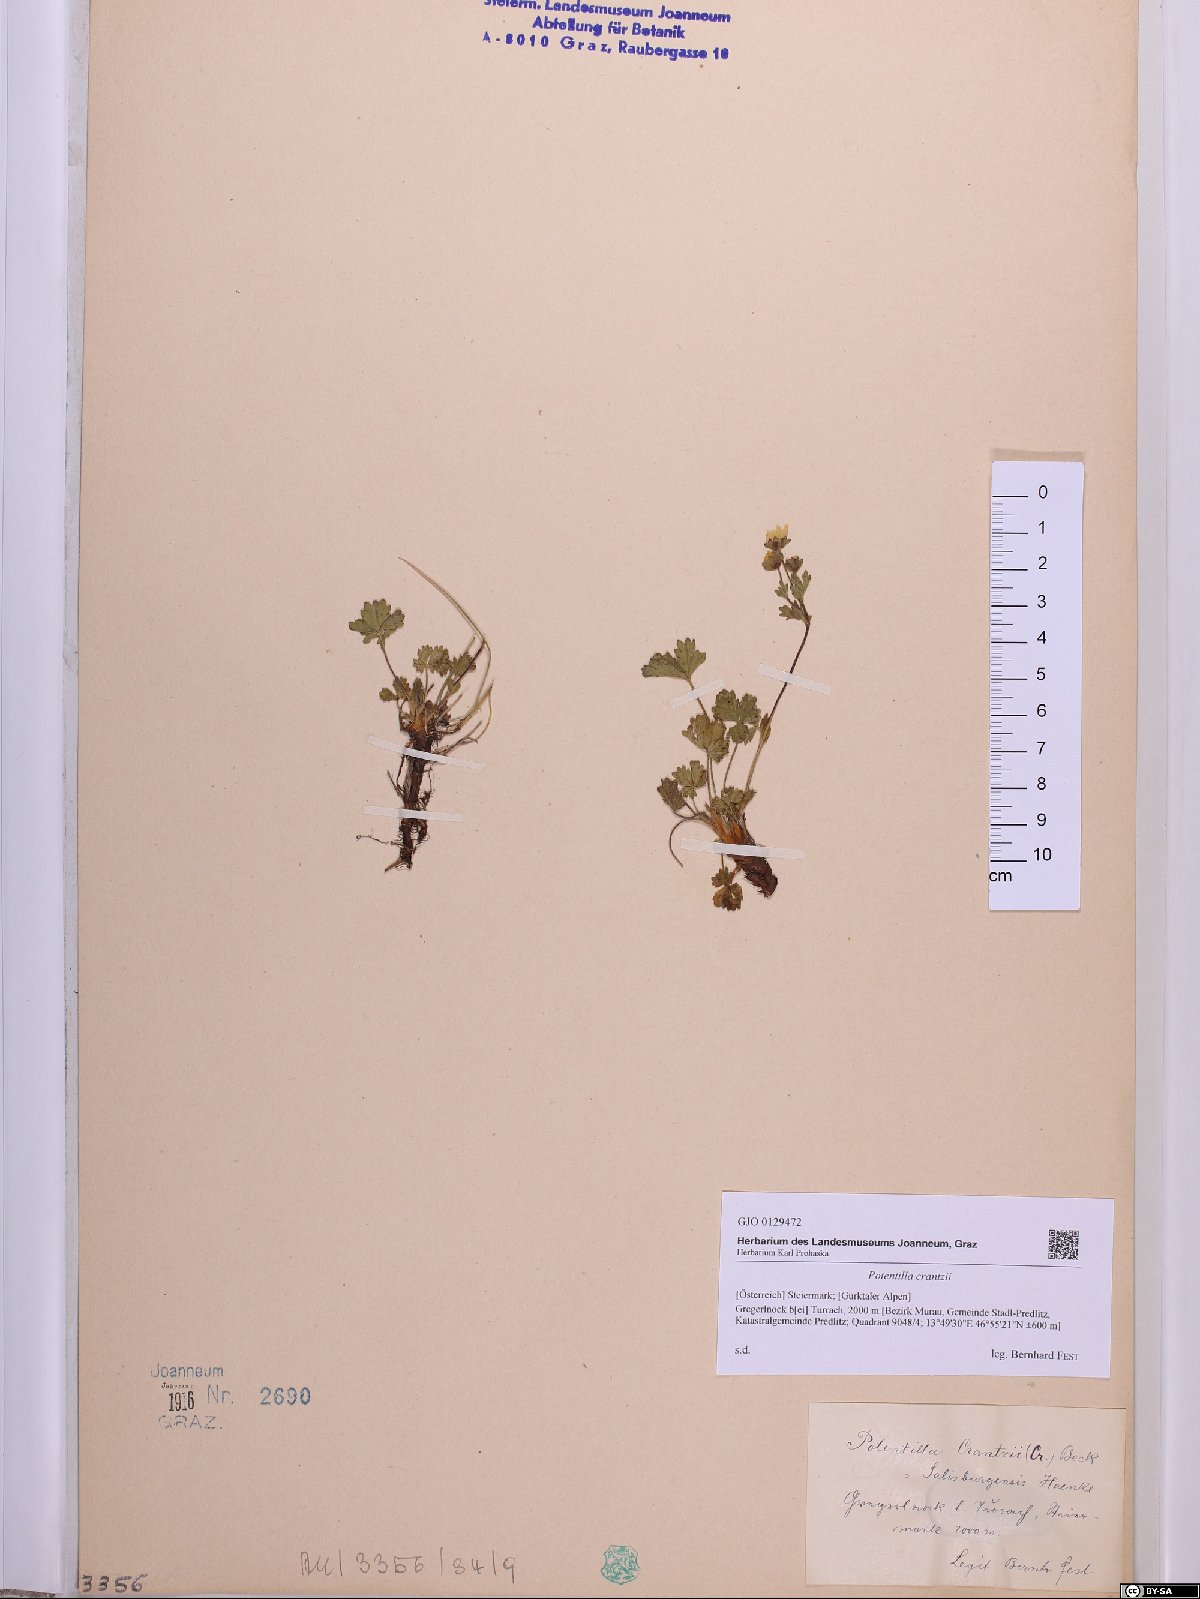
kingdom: Plantae
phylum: Tracheophyta
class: Magnoliopsida
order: Rosales
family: Rosaceae
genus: Potentilla
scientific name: Potentilla crantzii
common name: Alpine cinquefoil
